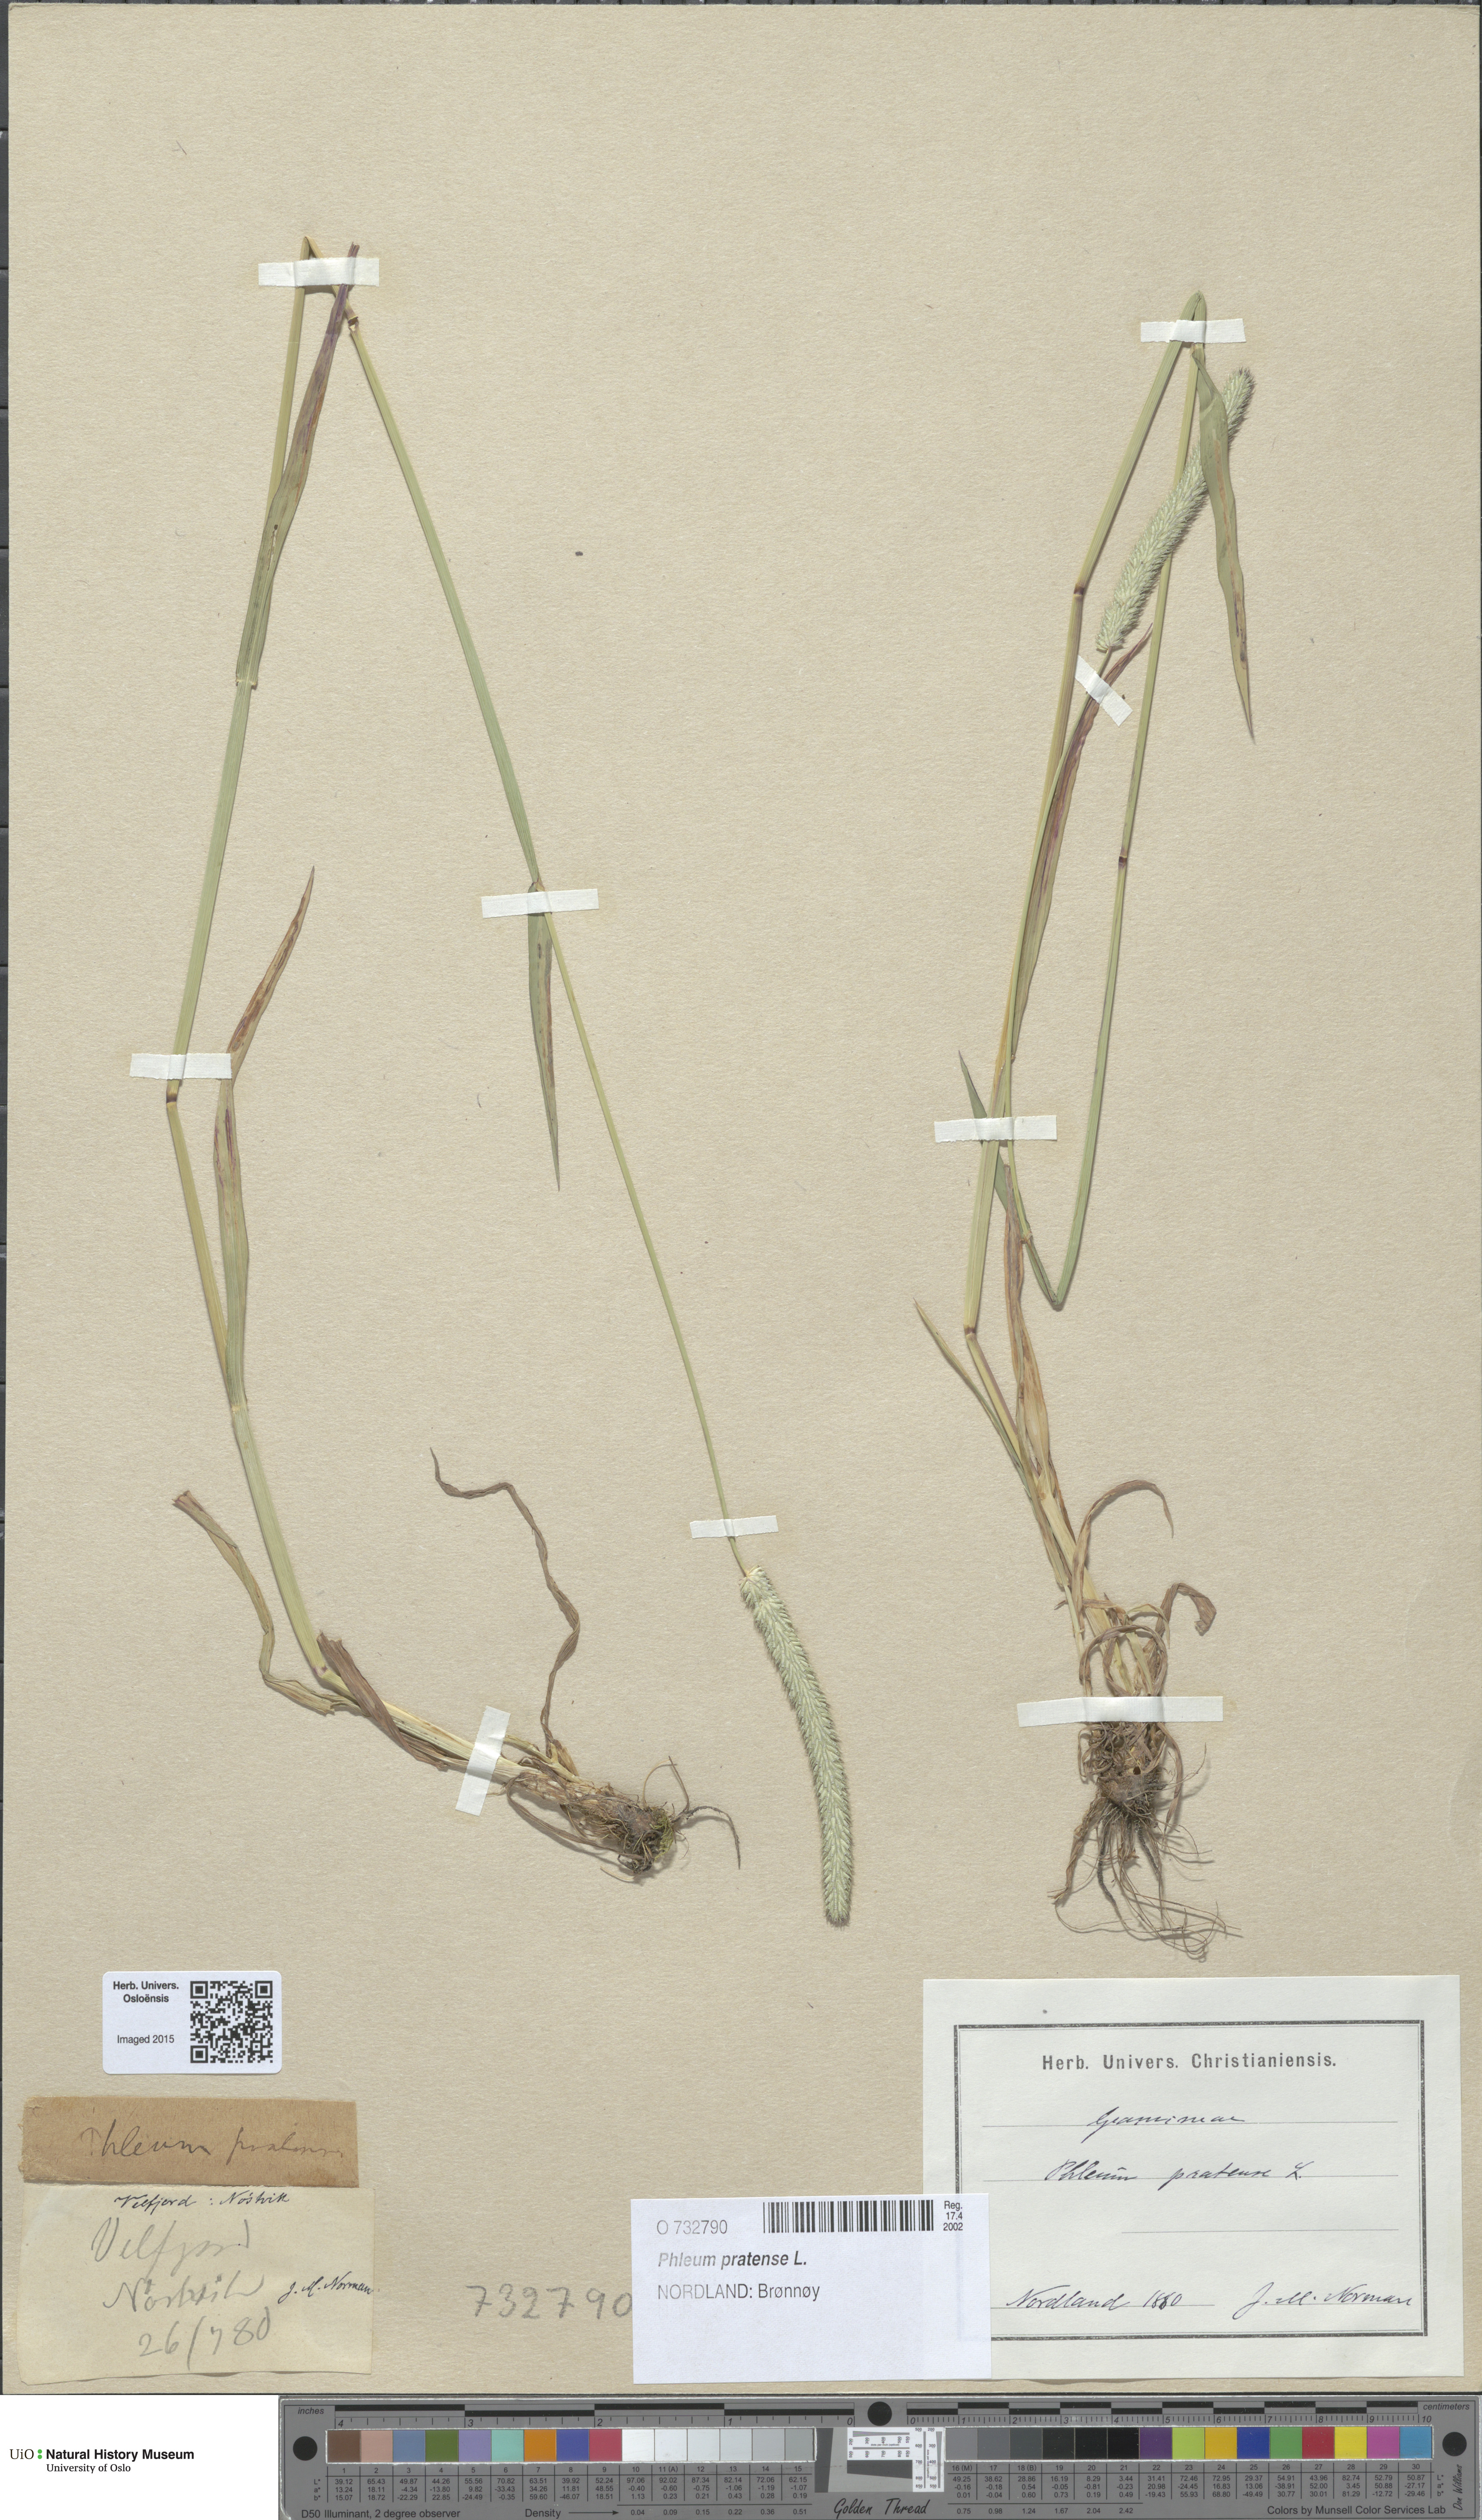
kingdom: Plantae
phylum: Tracheophyta
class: Liliopsida
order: Poales
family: Poaceae
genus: Phleum
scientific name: Phleum pratense
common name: Timothy grass
